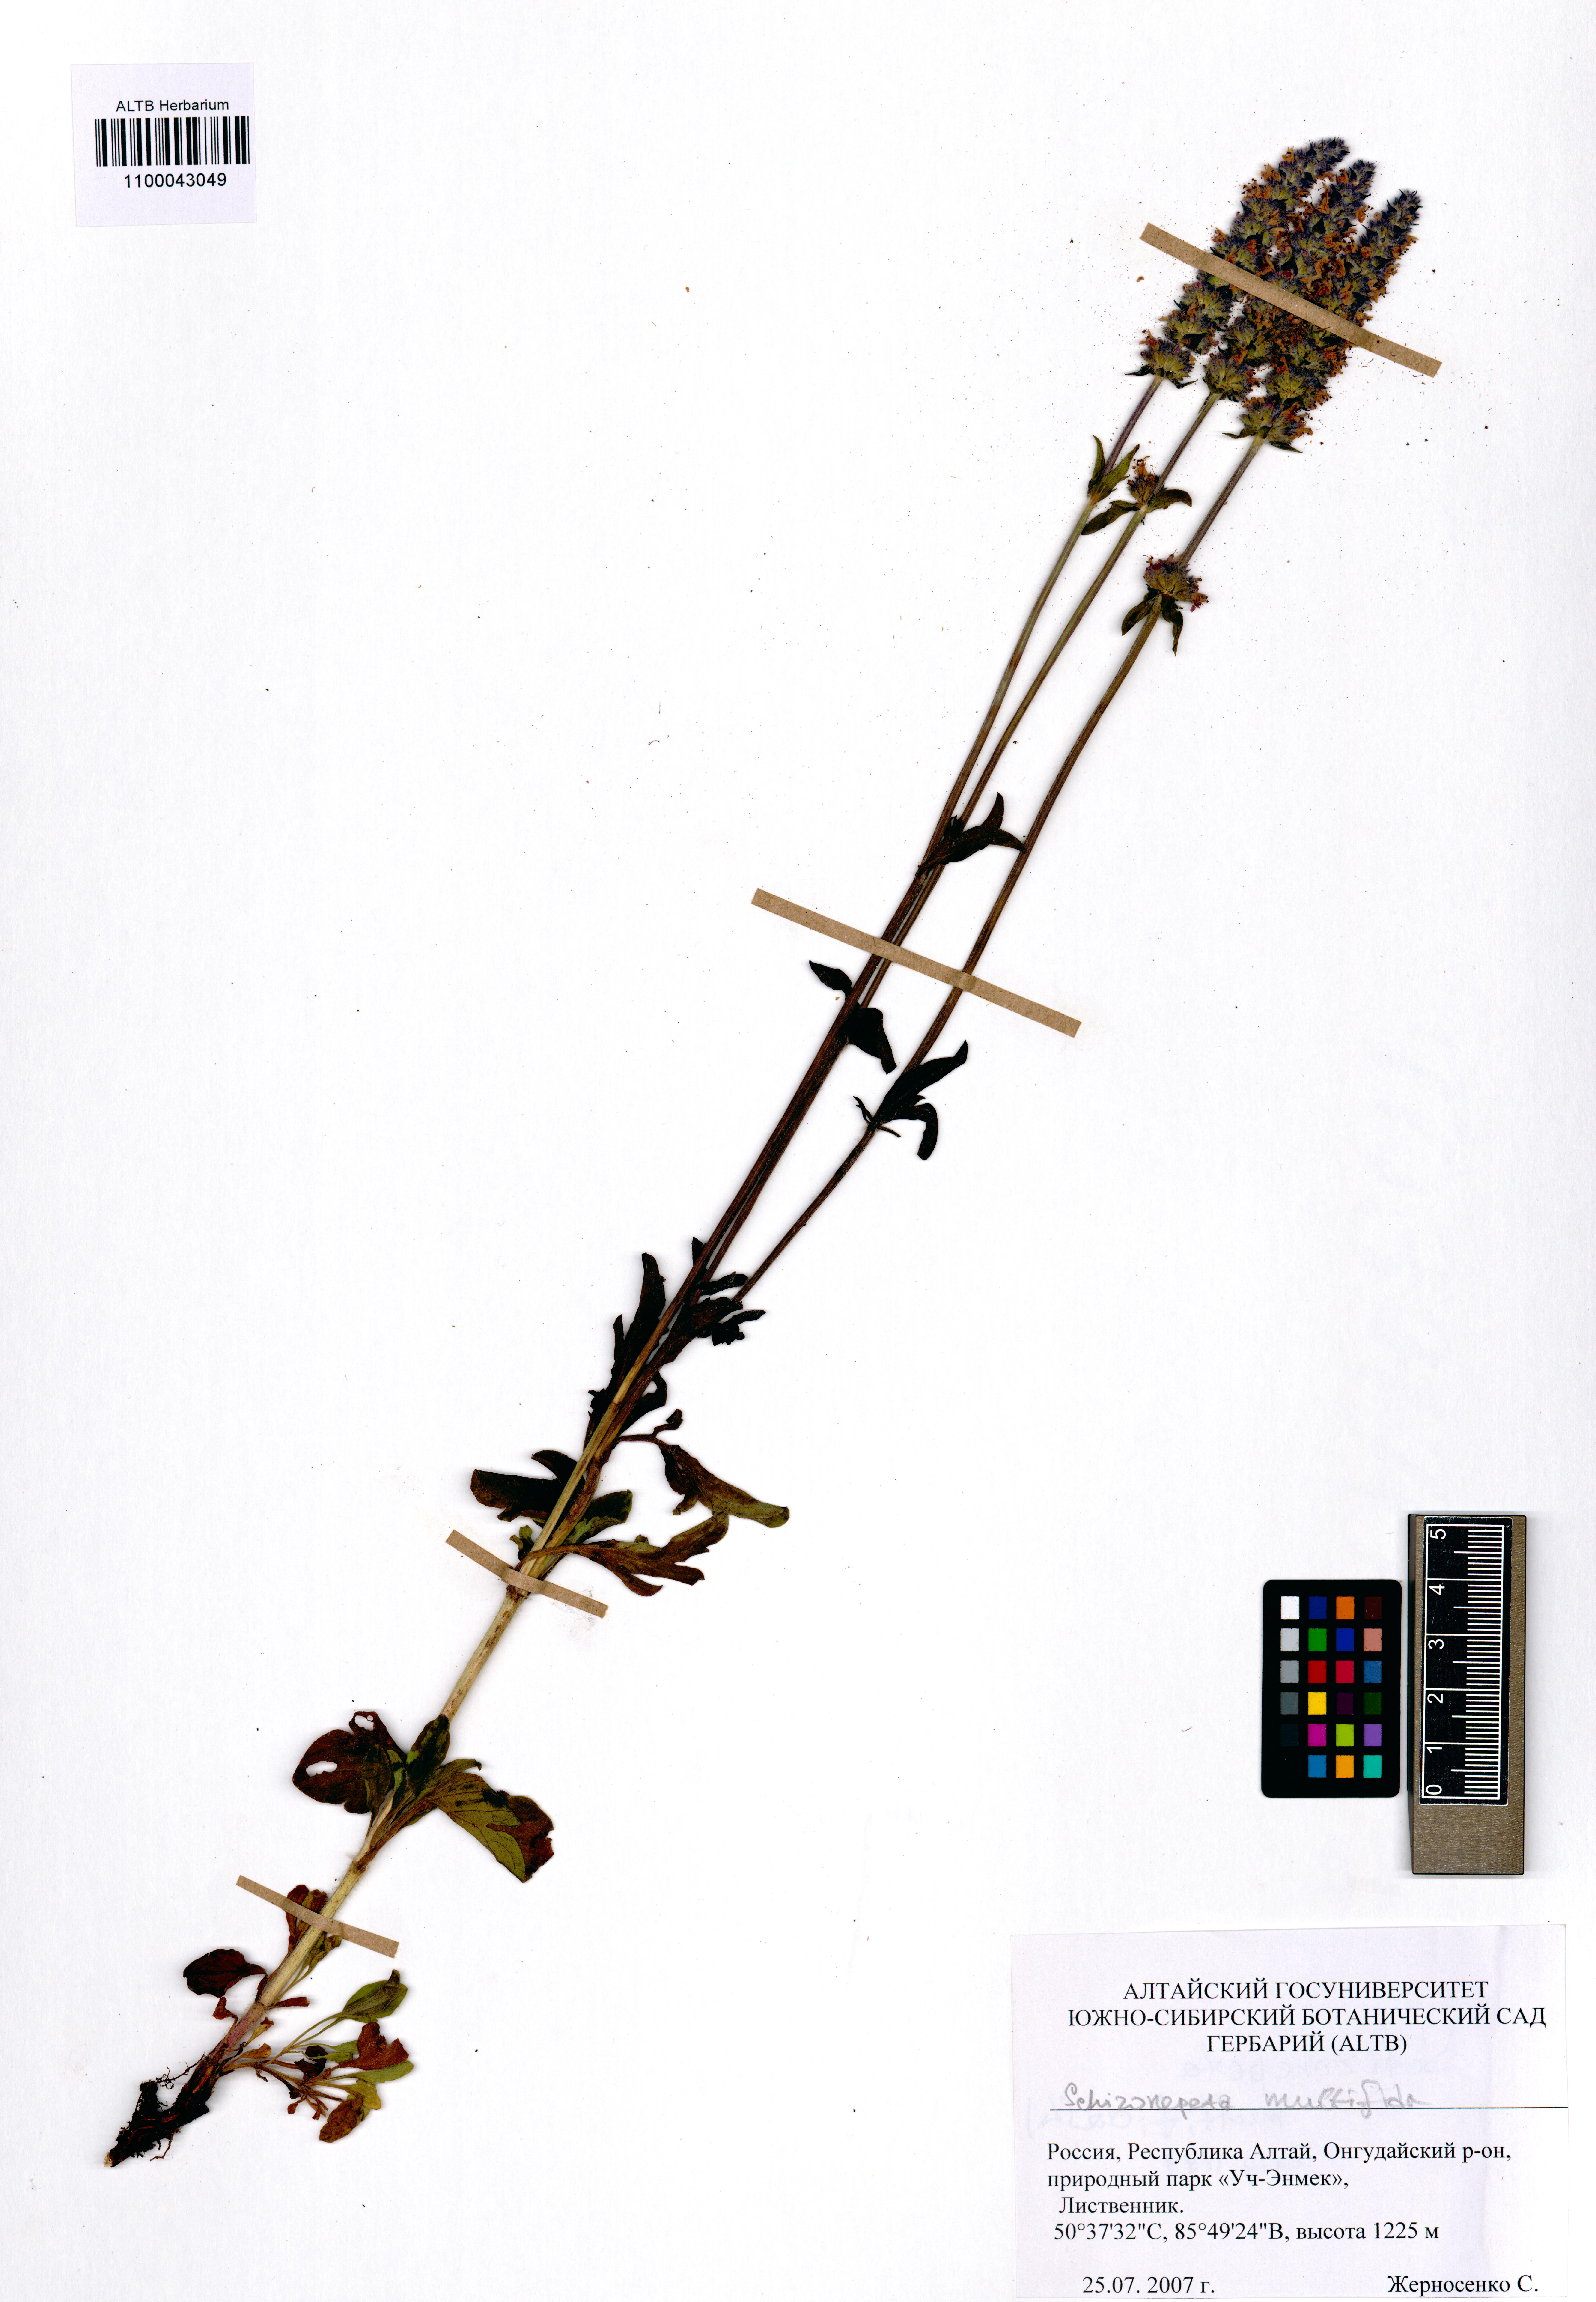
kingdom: Plantae
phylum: Tracheophyta
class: Magnoliopsida
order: Lamiales
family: Lamiaceae
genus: Nepeta
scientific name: Nepeta multifida
